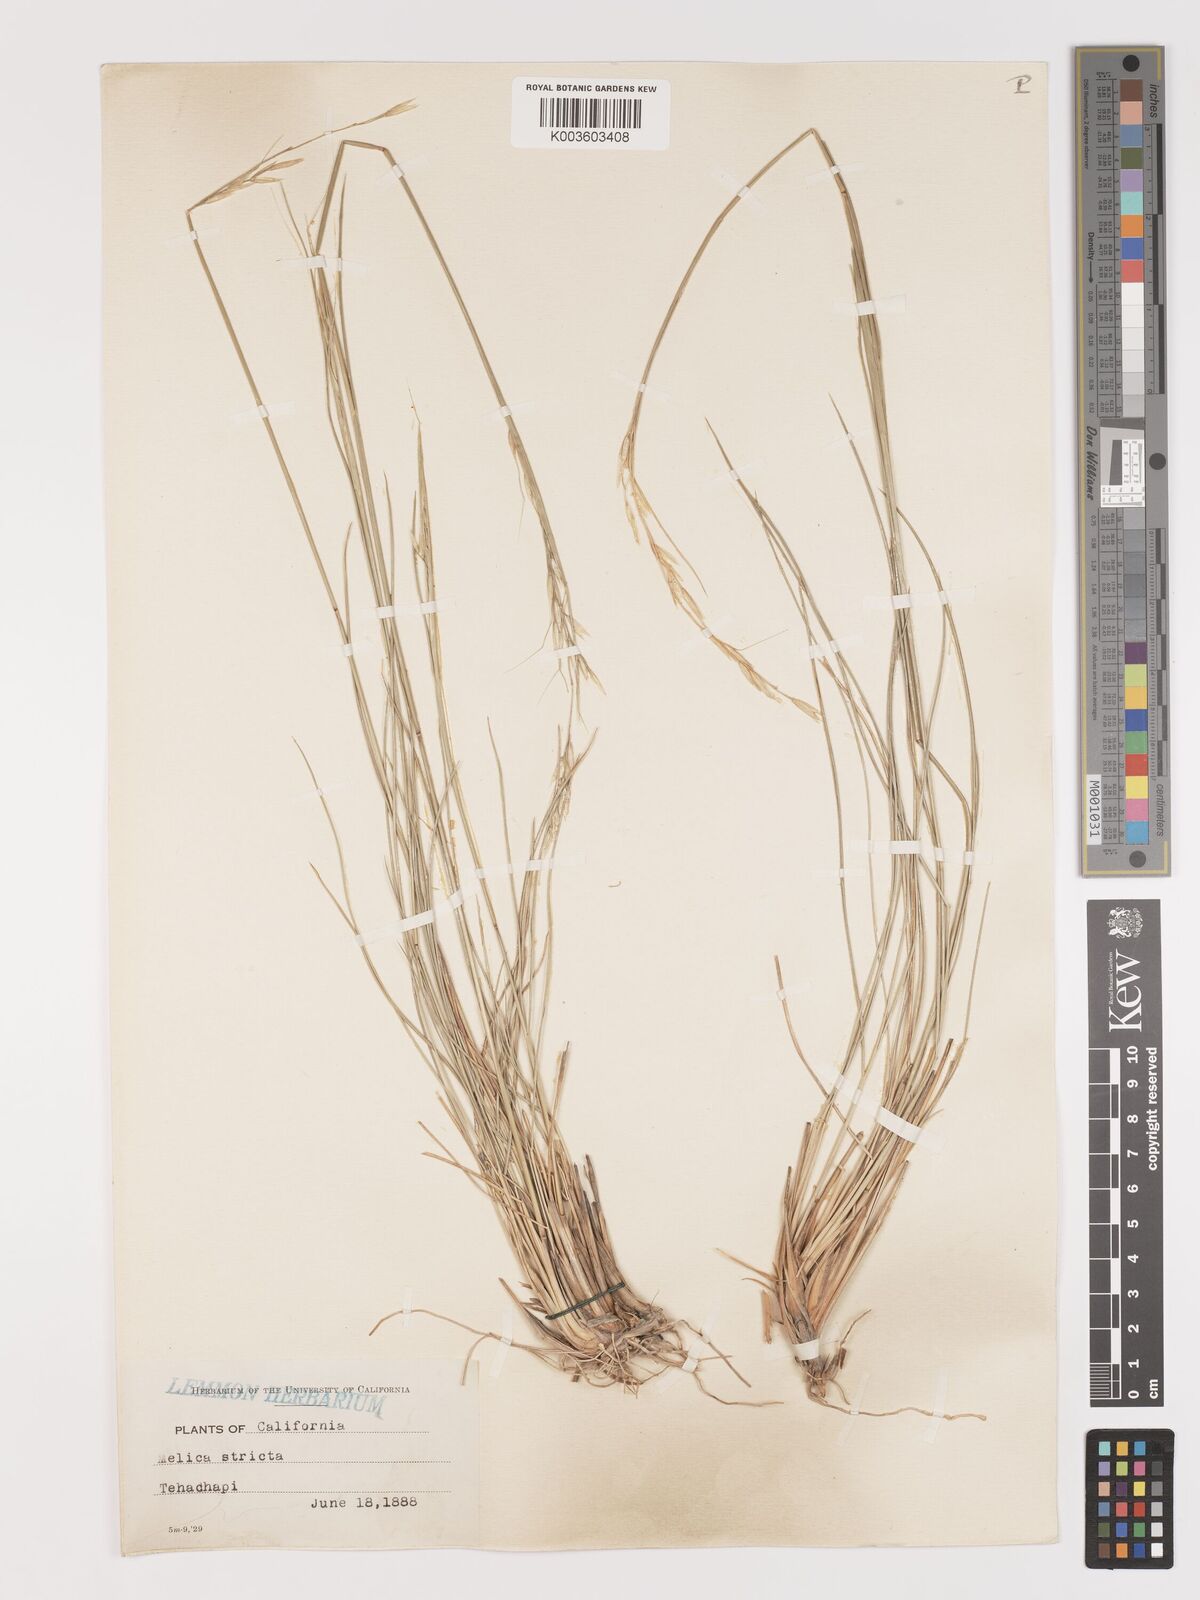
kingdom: Plantae
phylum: Tracheophyta
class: Liliopsida
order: Poales
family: Poaceae
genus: Eriocoma
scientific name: Eriocoma thurberiana
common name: Thurber's needlegrass
